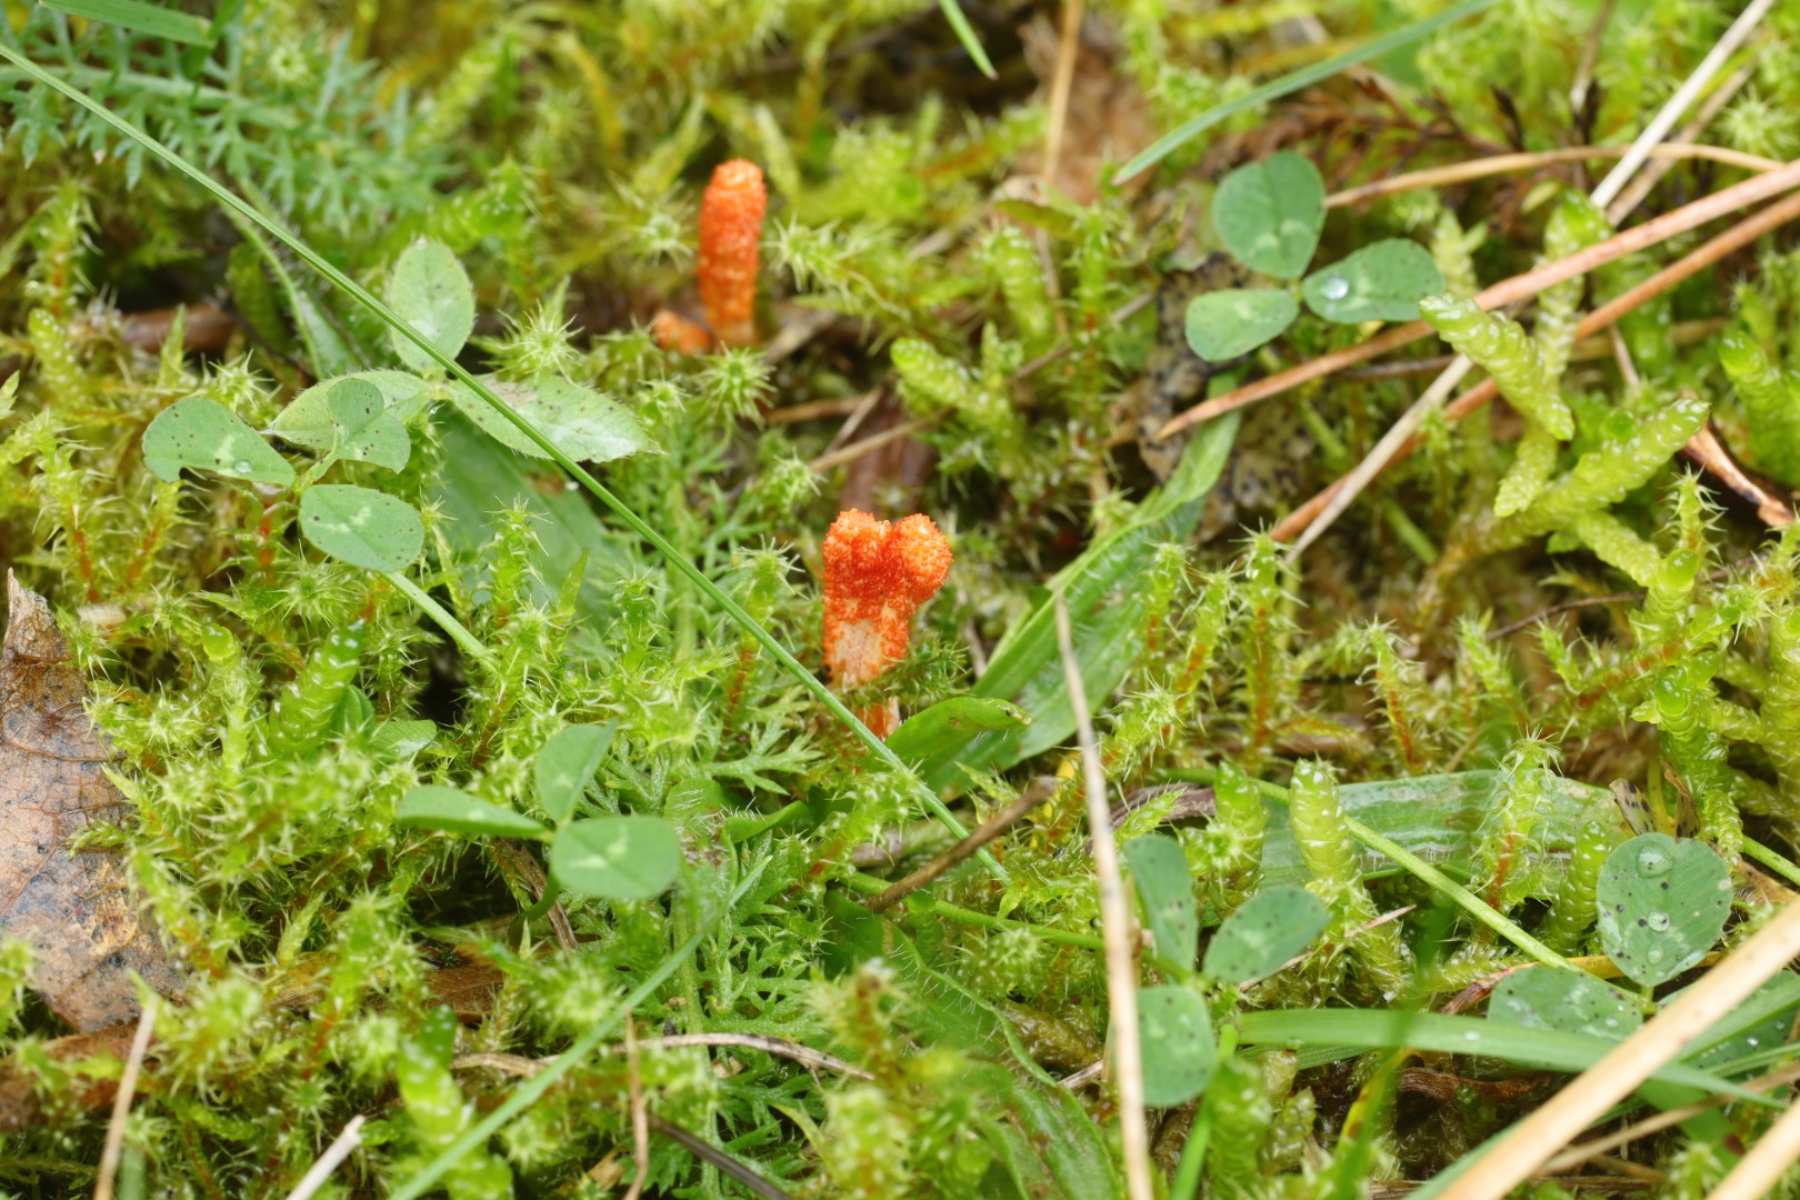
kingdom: Fungi
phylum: Ascomycota
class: Sordariomycetes
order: Hypocreales
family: Cordycipitaceae
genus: Cordyceps
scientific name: Cordyceps militaris
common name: puppe-snyltekølle
